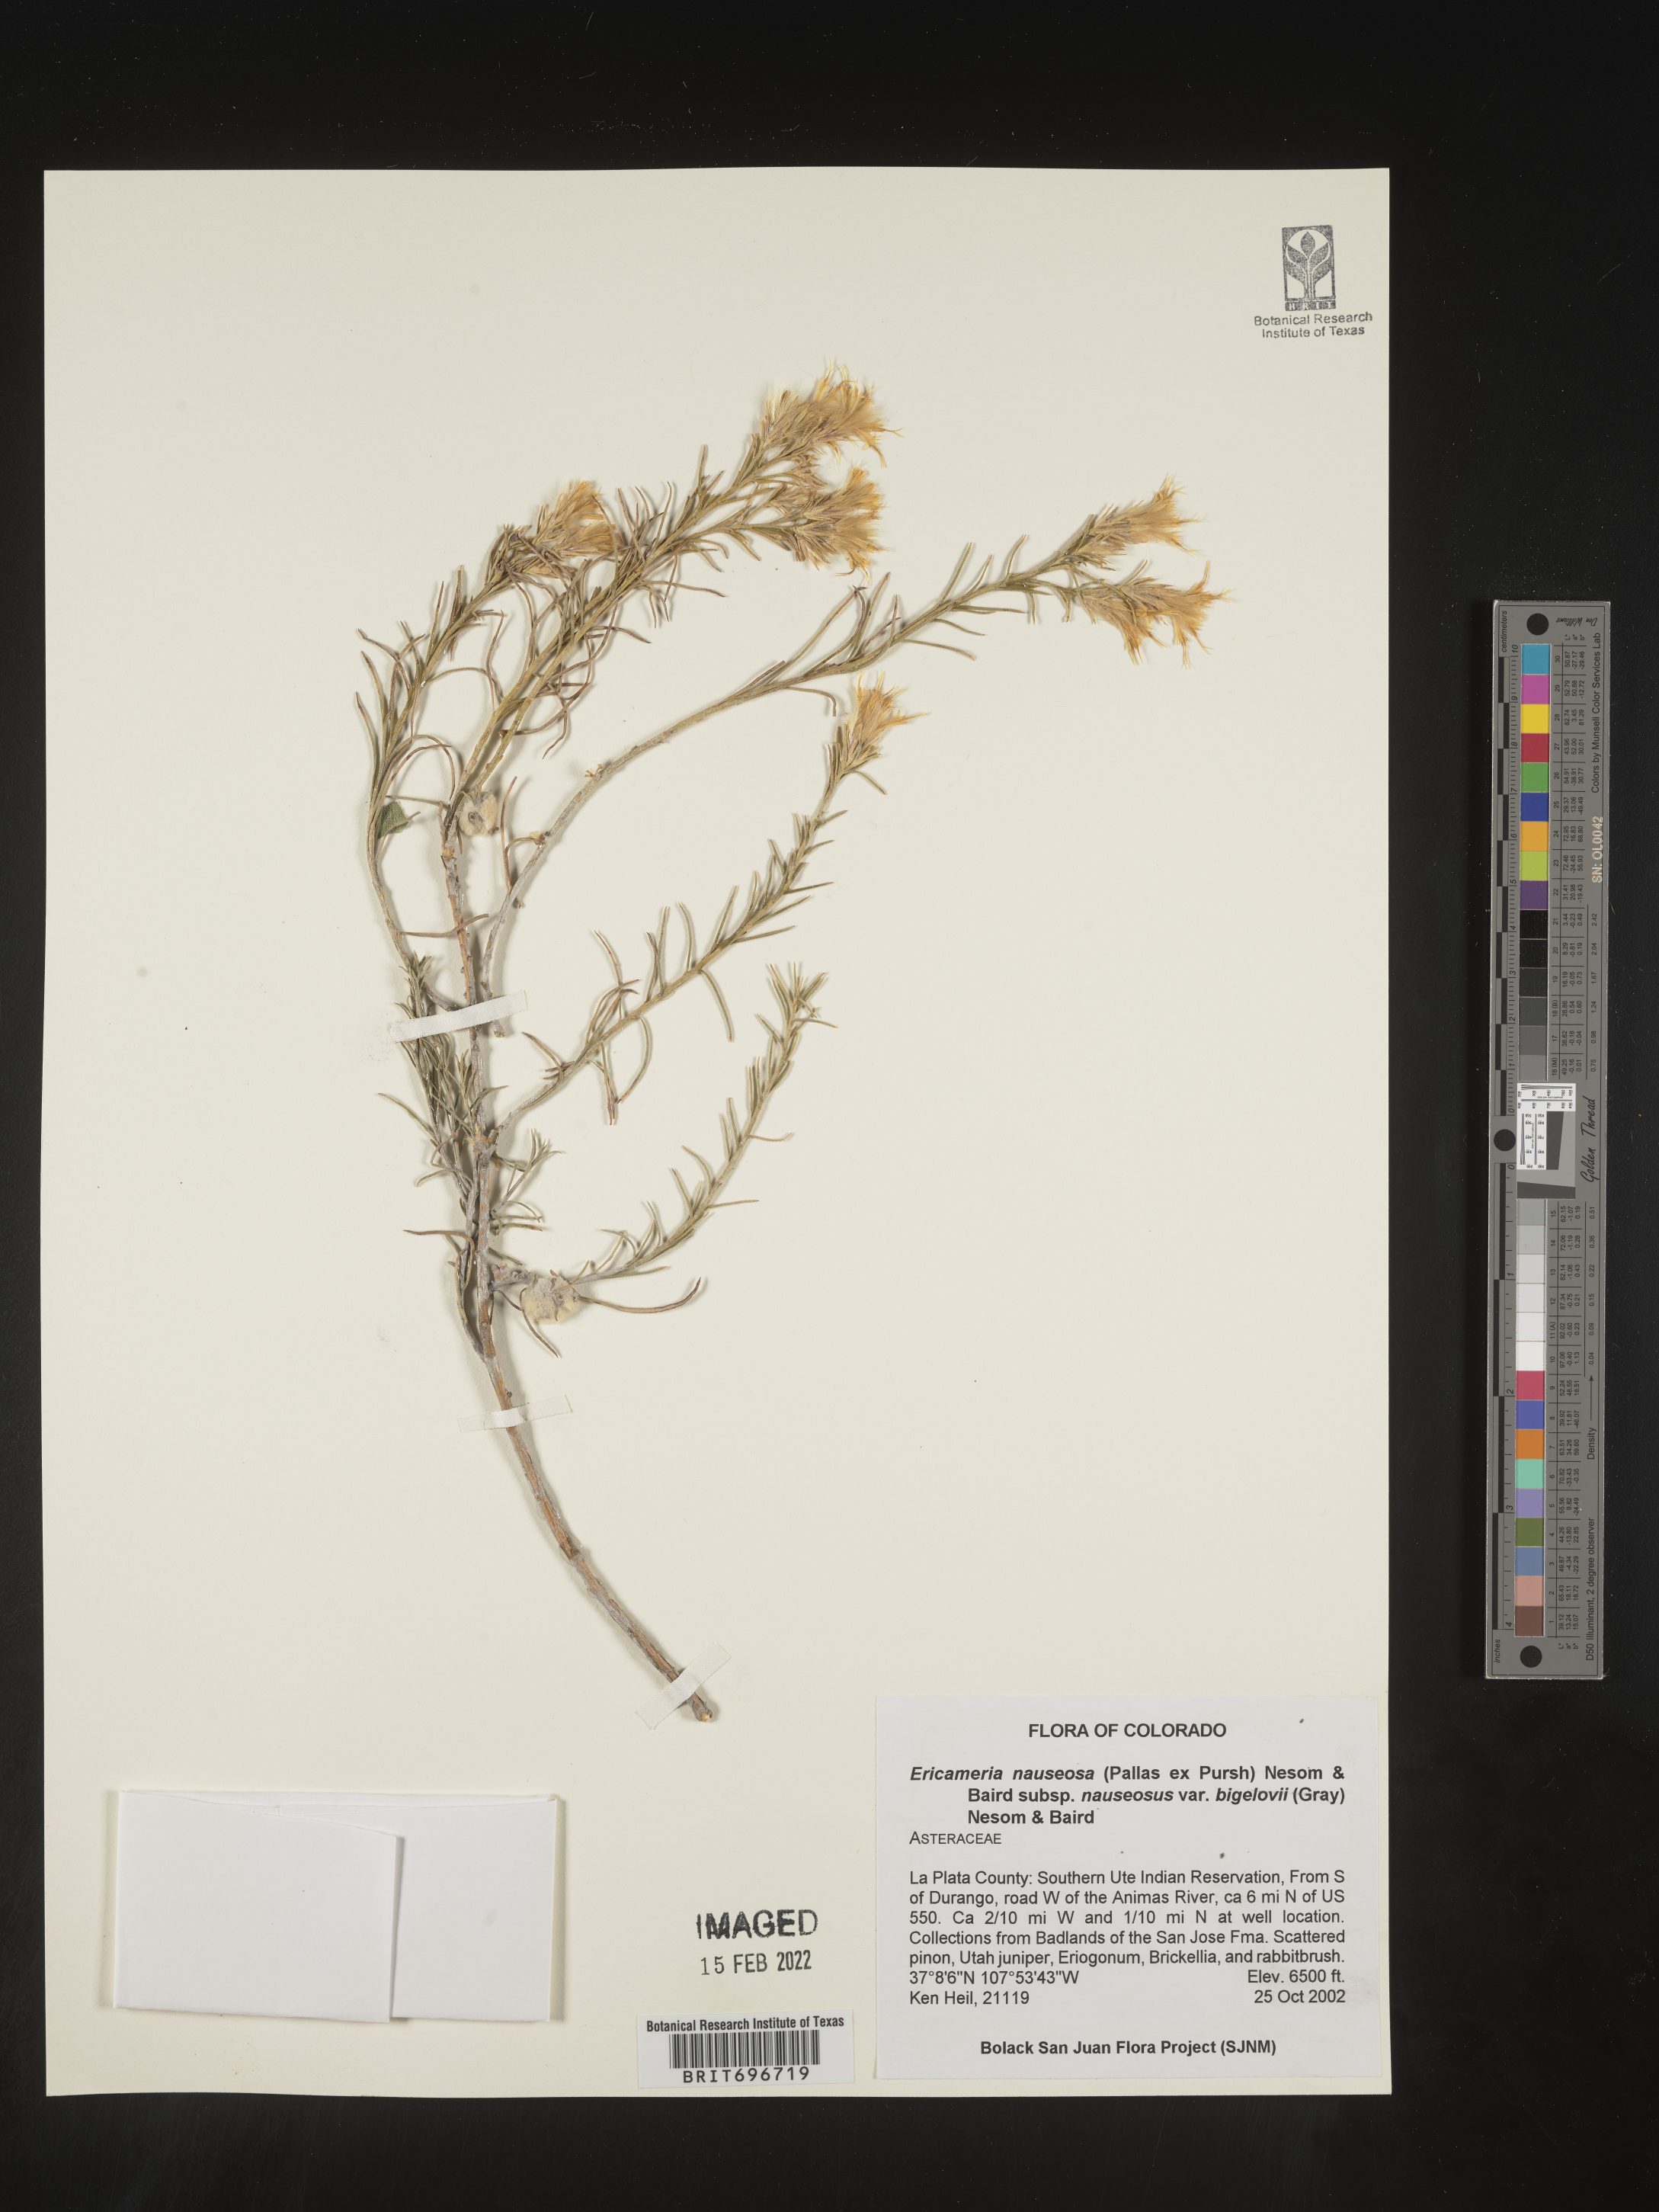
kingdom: Plantae
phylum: Tracheophyta
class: Magnoliopsida
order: Asterales
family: Asteraceae
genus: Ericameria
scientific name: Ericameria nauseosa
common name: Rubber rabbitbrush
